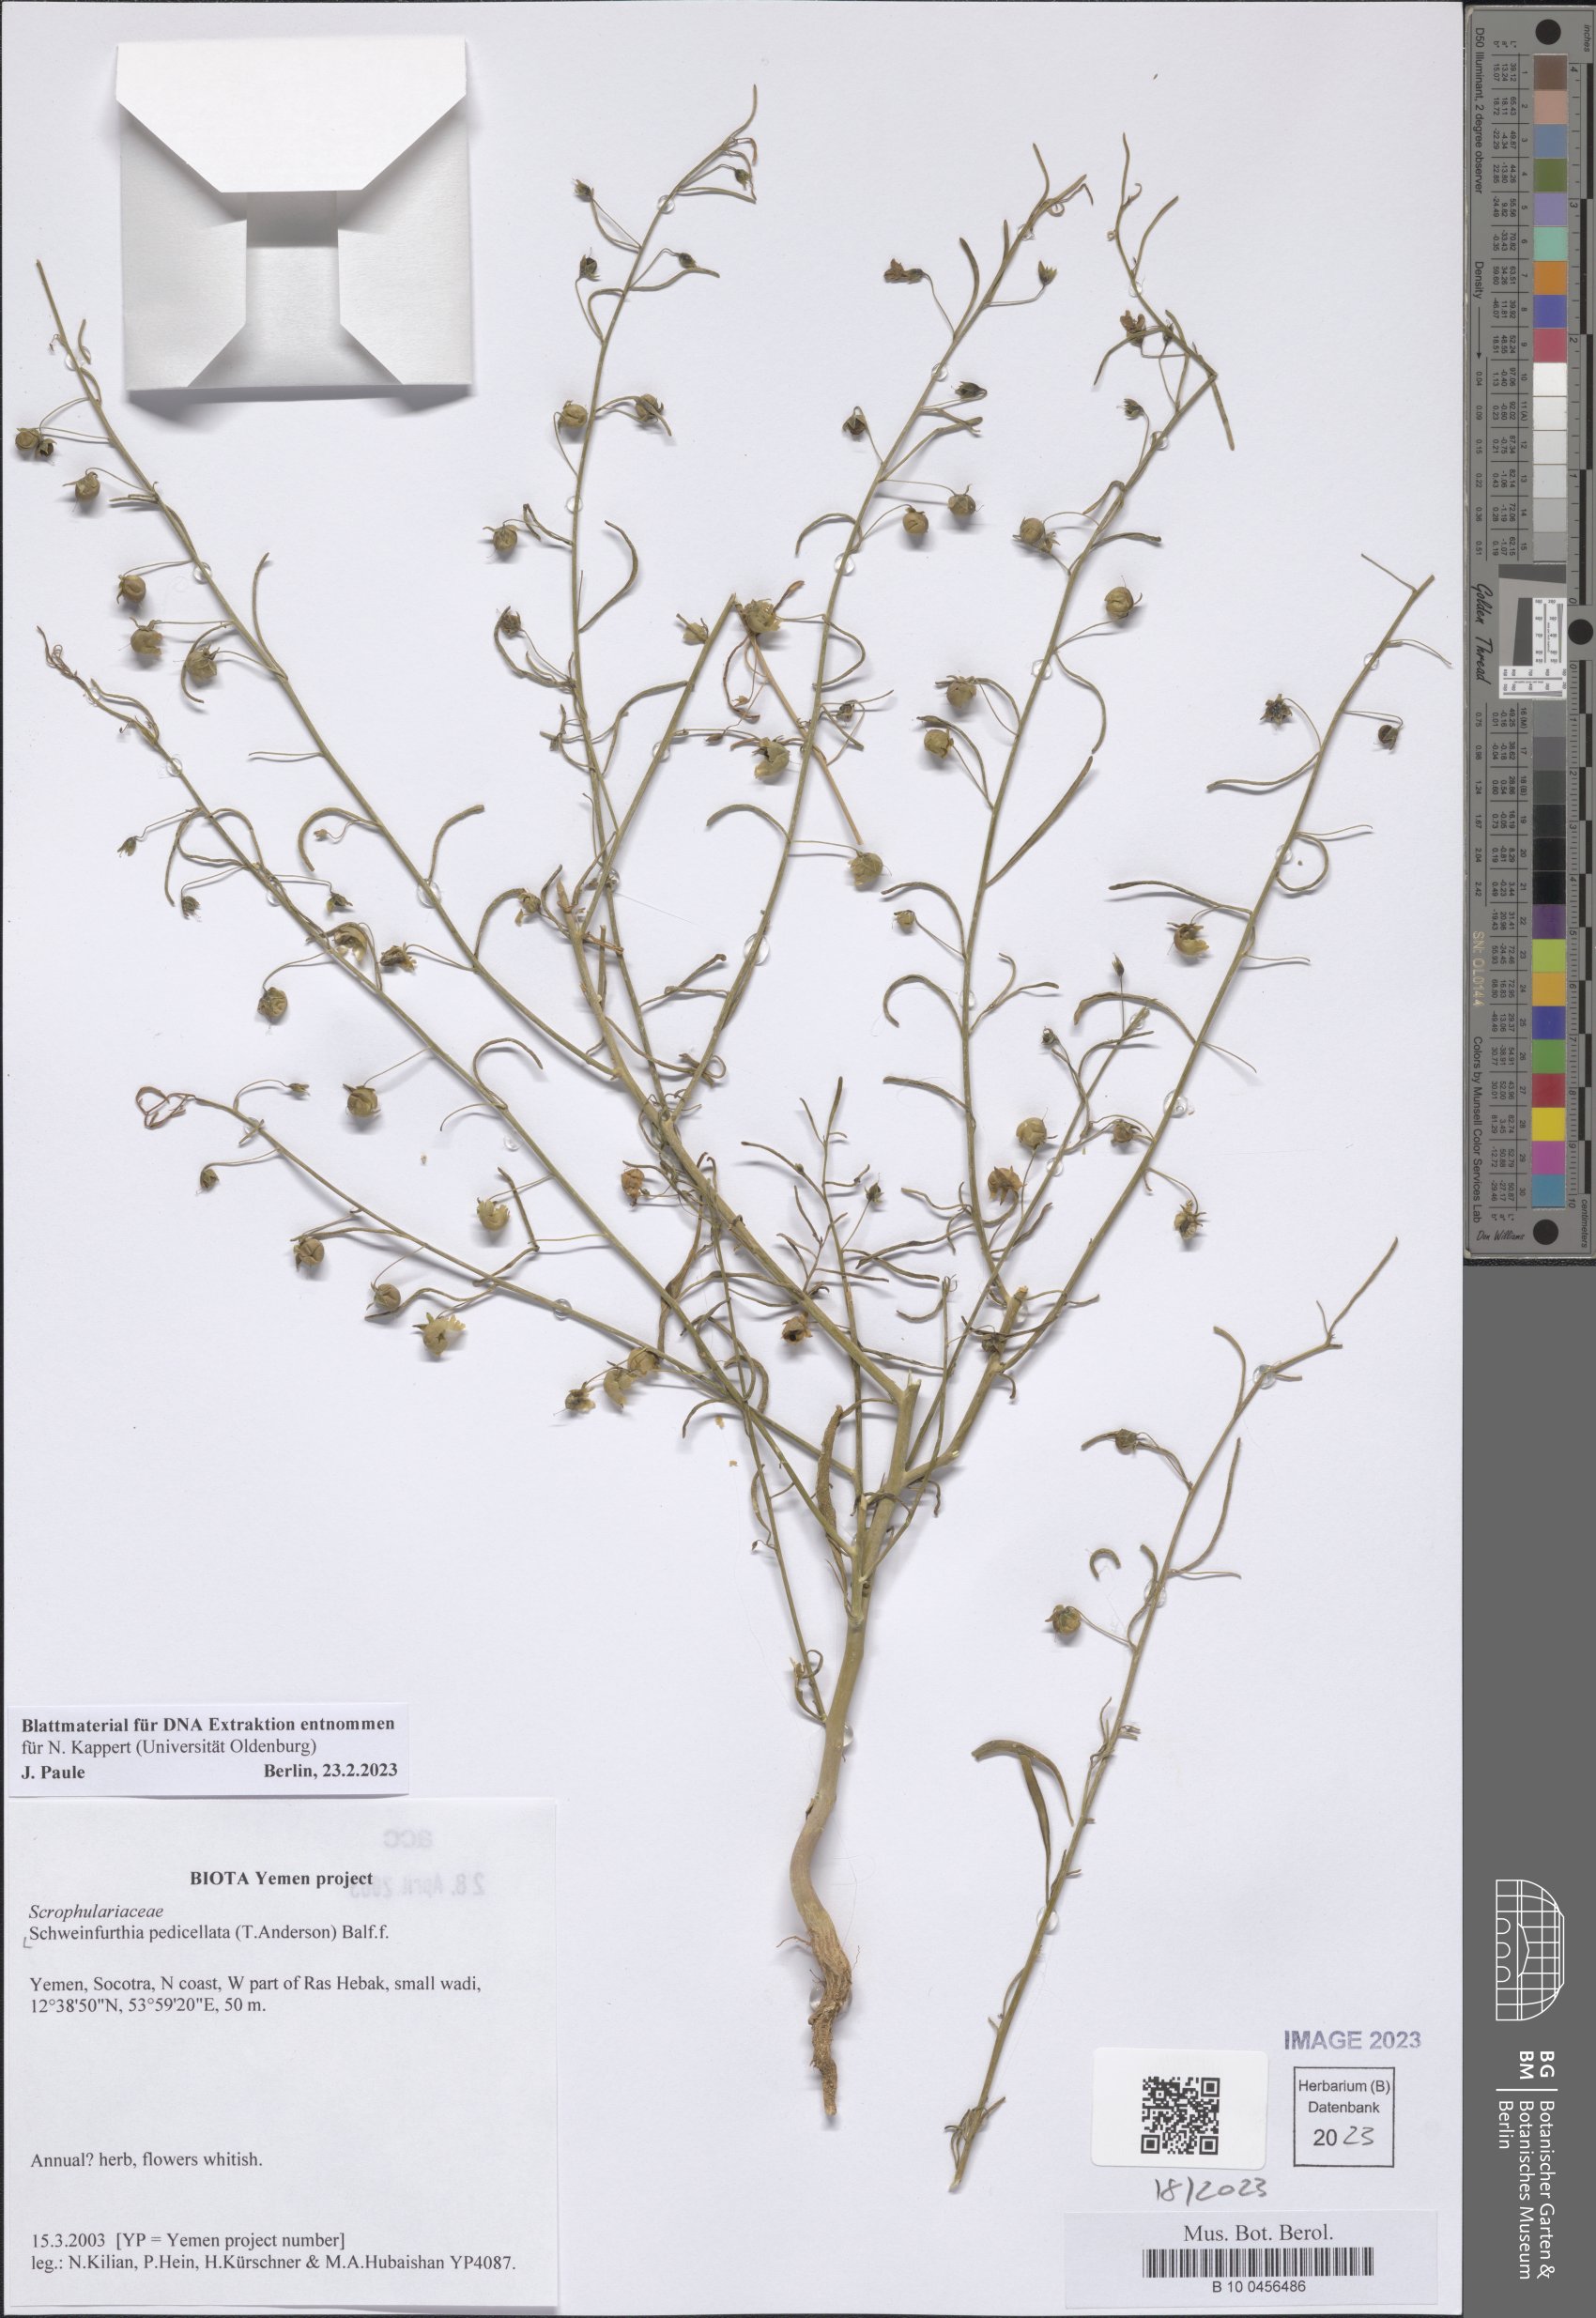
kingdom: Plantae
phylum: Tracheophyta
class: Magnoliopsida
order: Lamiales
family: Plantaginaceae
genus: Schweinfurthia
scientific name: Schweinfurthia pedicellata
